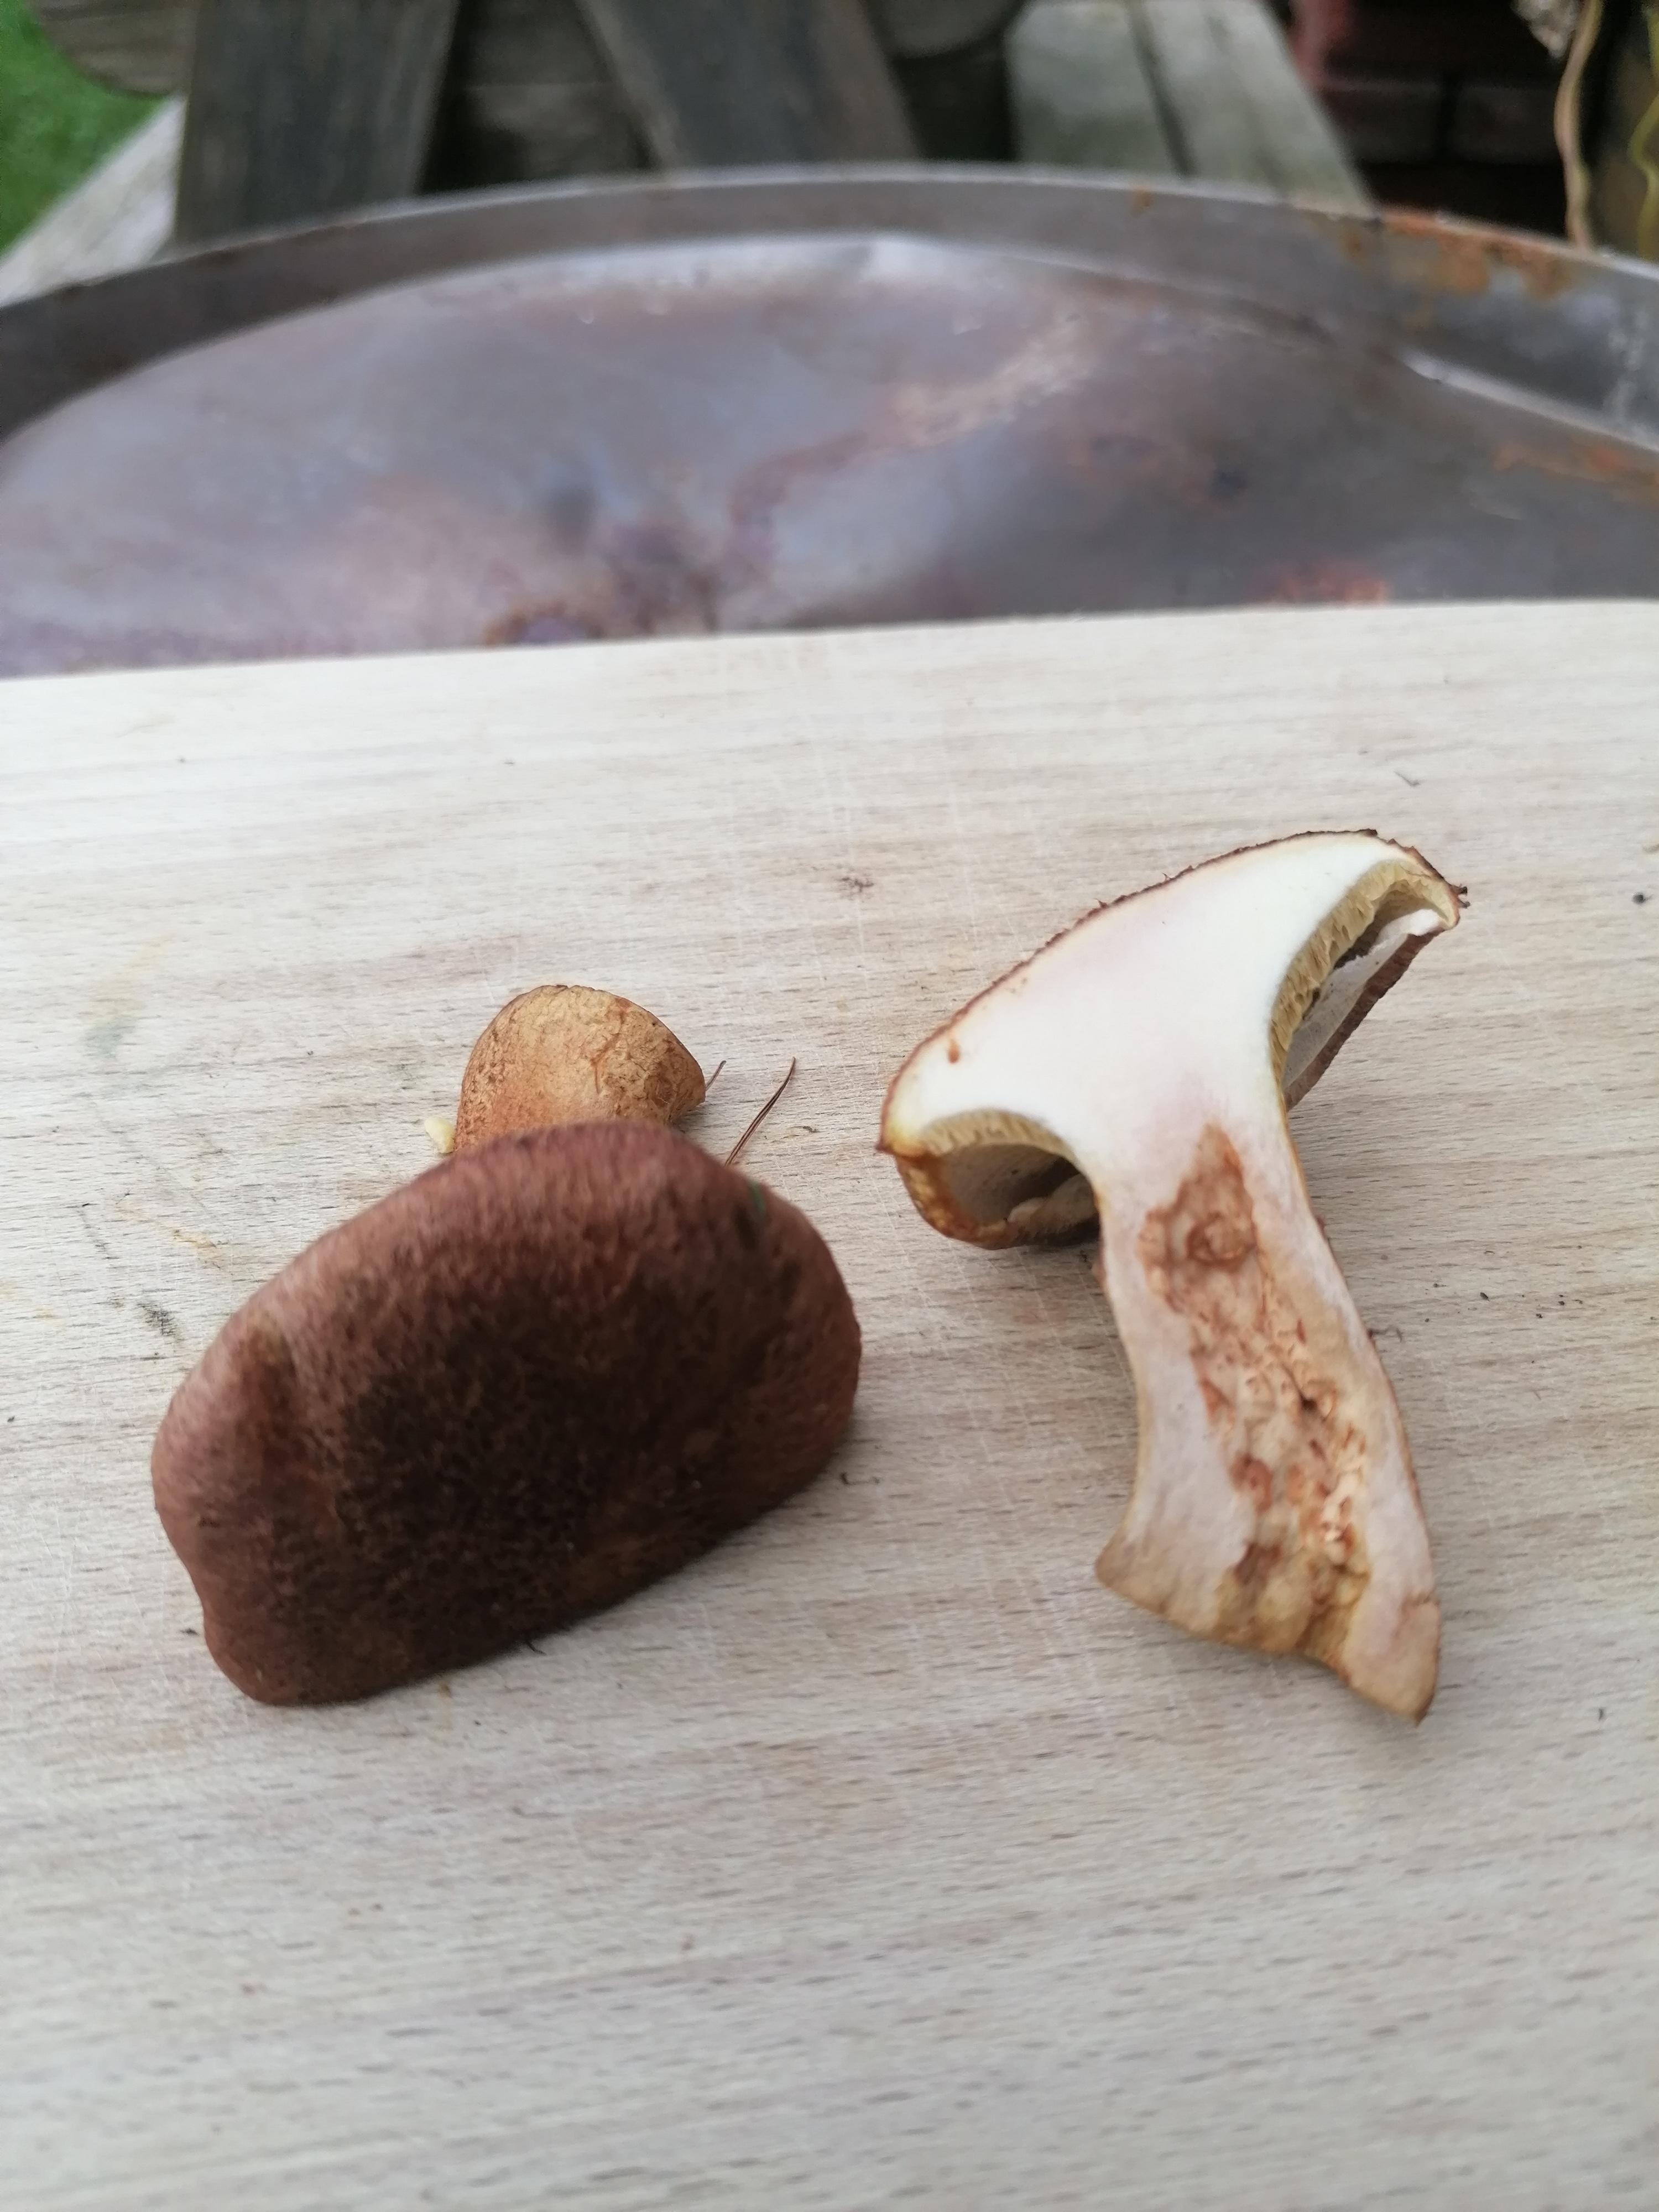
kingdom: Fungi
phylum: Basidiomycota
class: Agaricomycetes
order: Boletales
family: Suillaceae
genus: Suillus
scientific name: Suillus cavipes
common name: hulstokket slimrørhat
